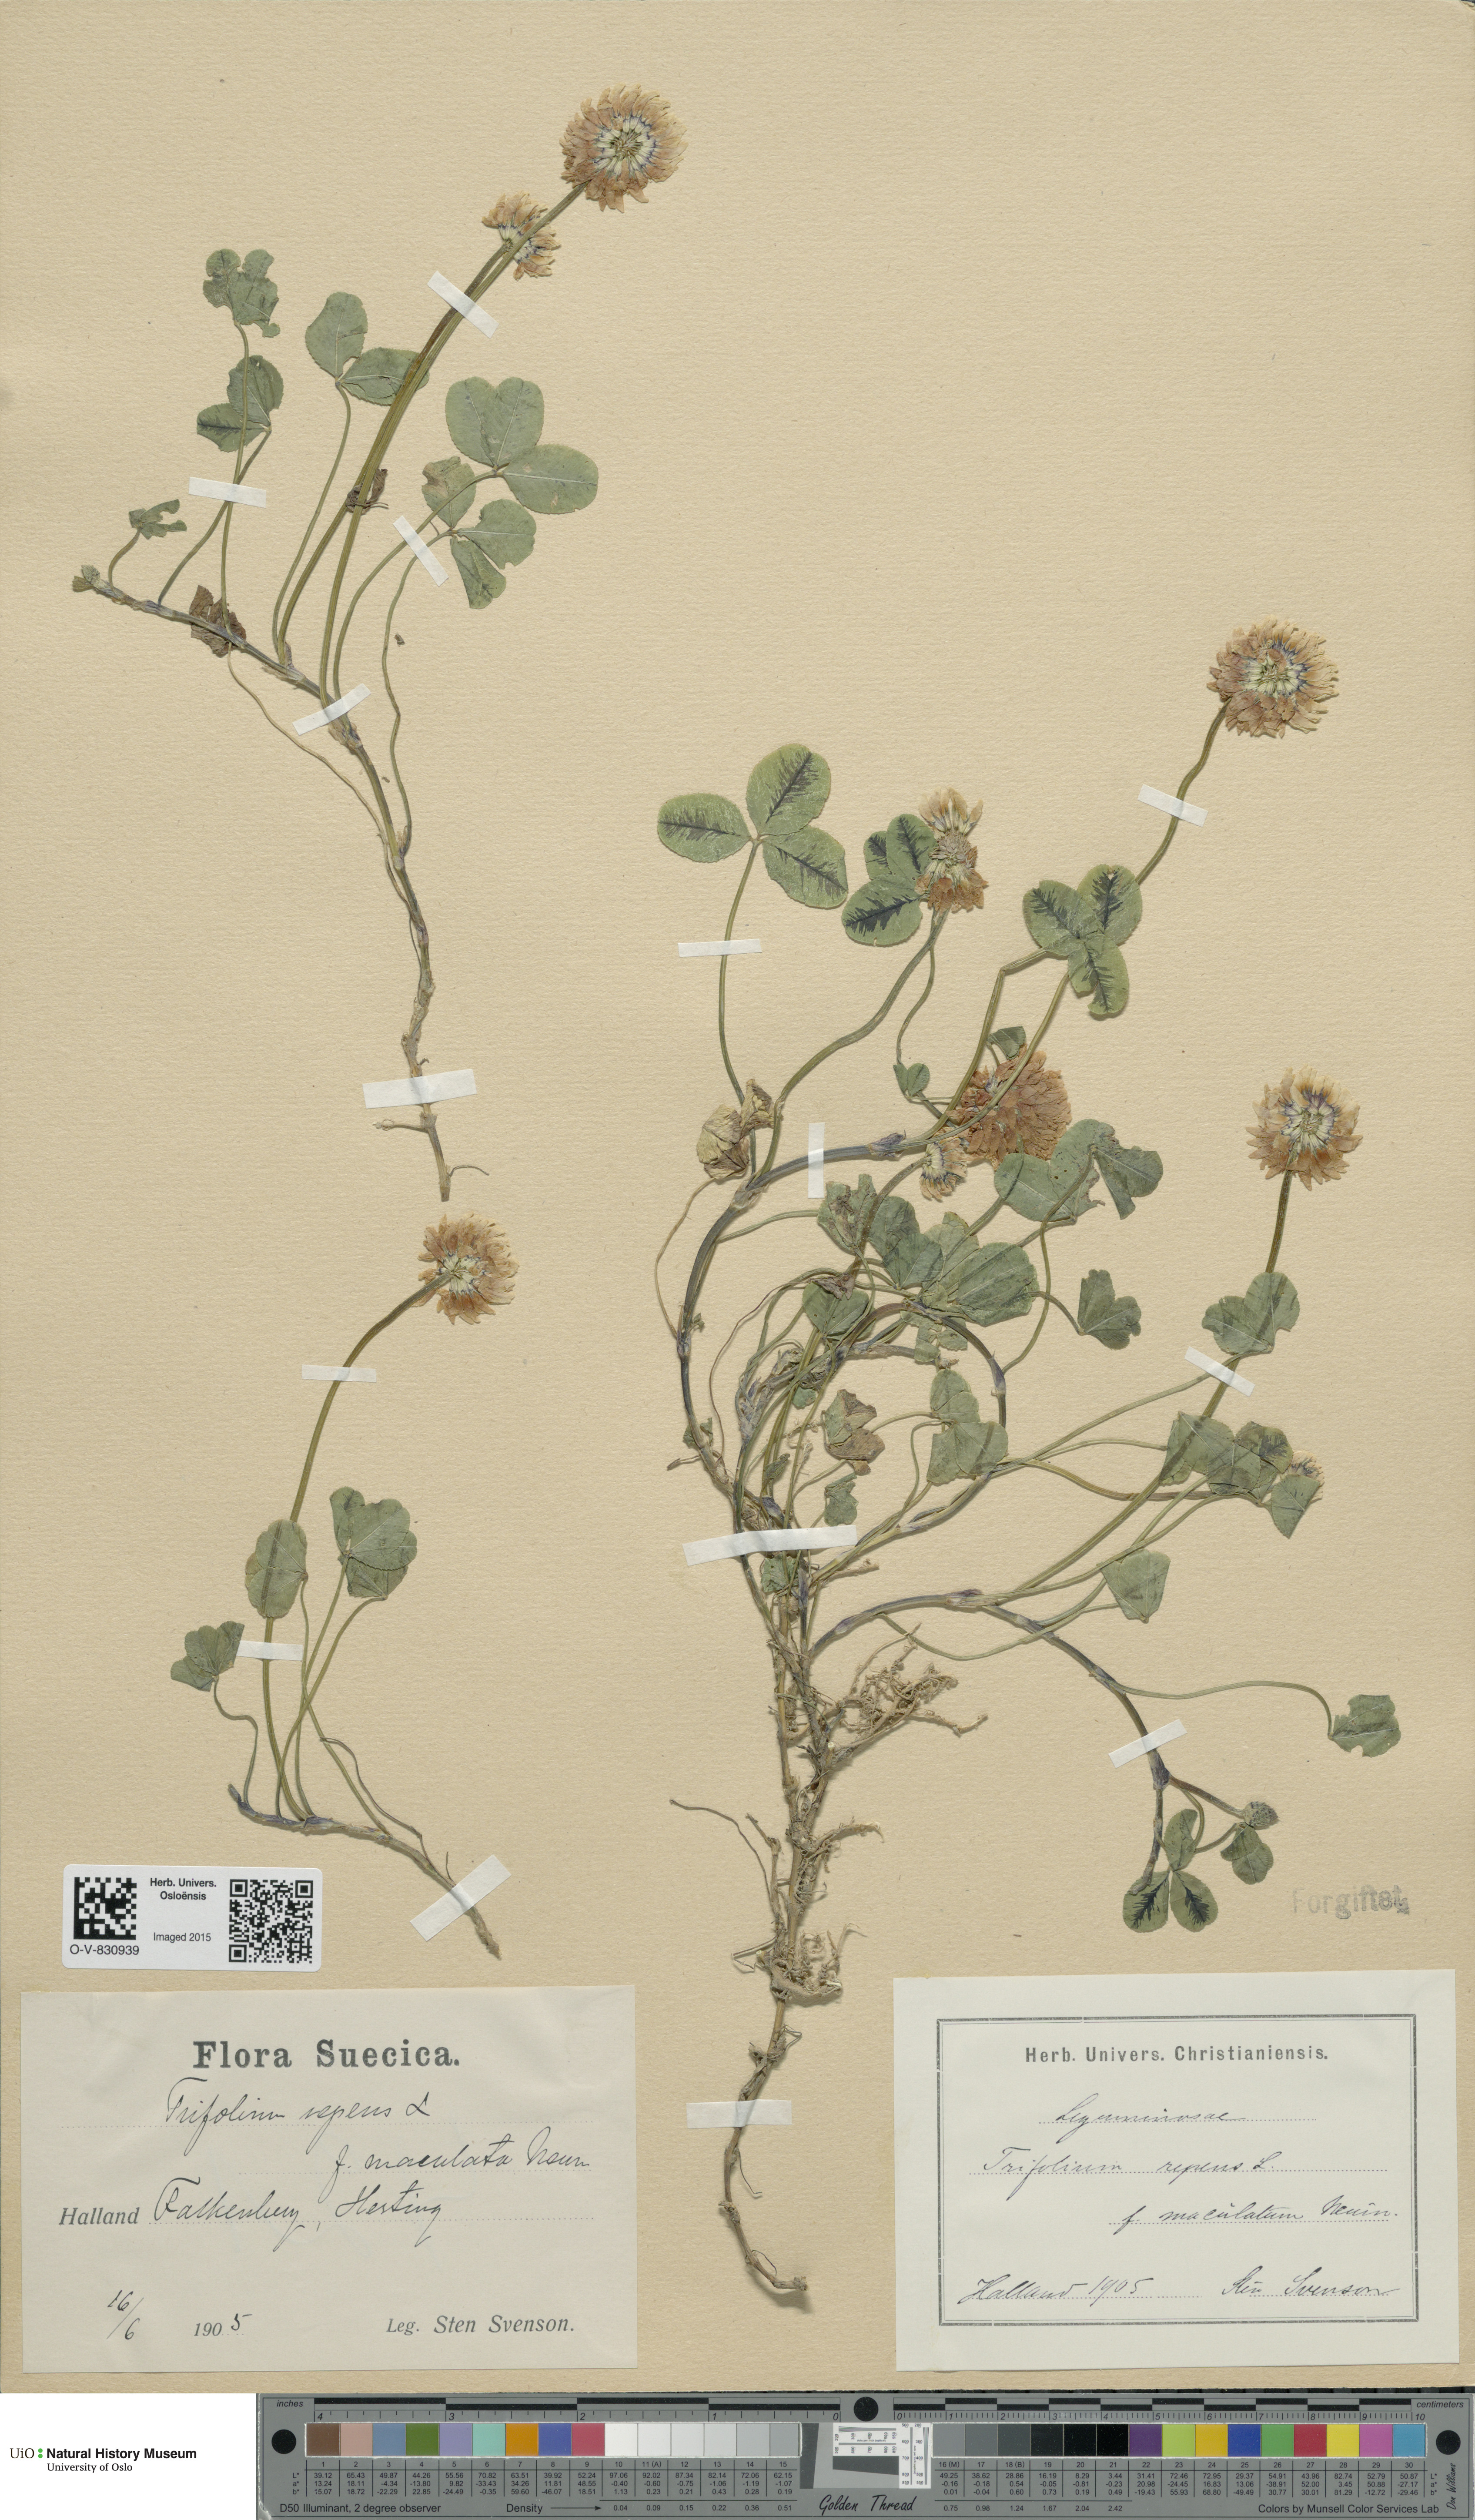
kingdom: Plantae
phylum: Tracheophyta
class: Magnoliopsida
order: Fabales
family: Fabaceae
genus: Trifolium
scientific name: Trifolium repens
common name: White clover
